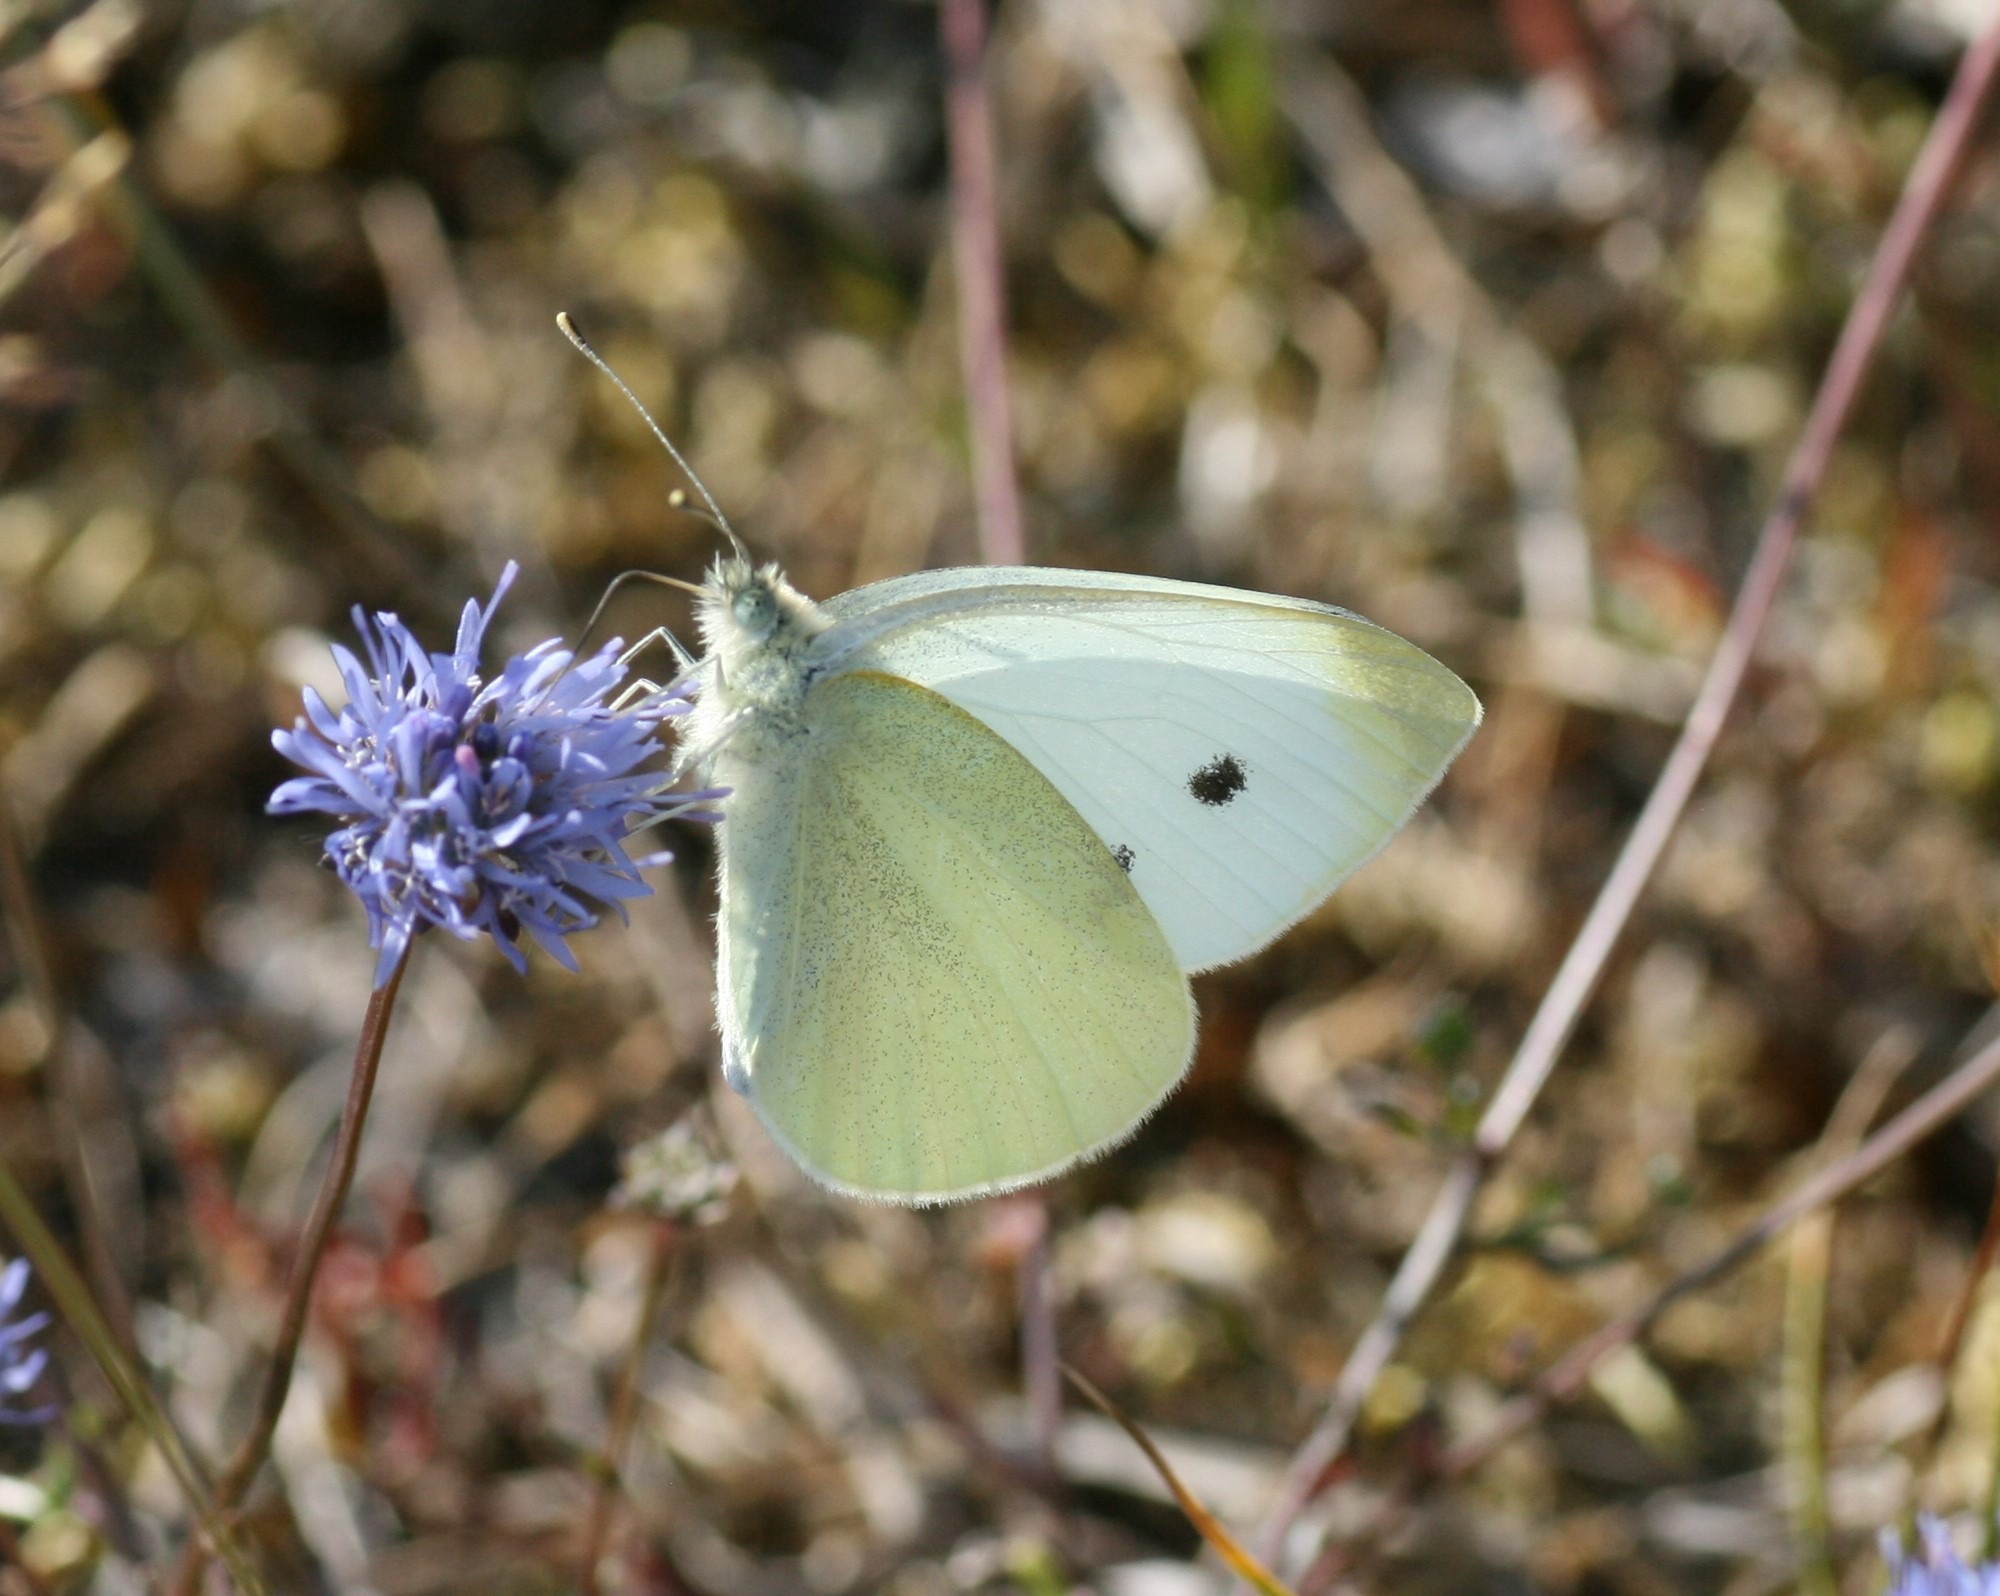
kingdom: Animalia
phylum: Arthropoda
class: Insecta
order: Lepidoptera
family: Pieridae
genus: Pieris
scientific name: Pieris rapae
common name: Lille kålsommerfugl
